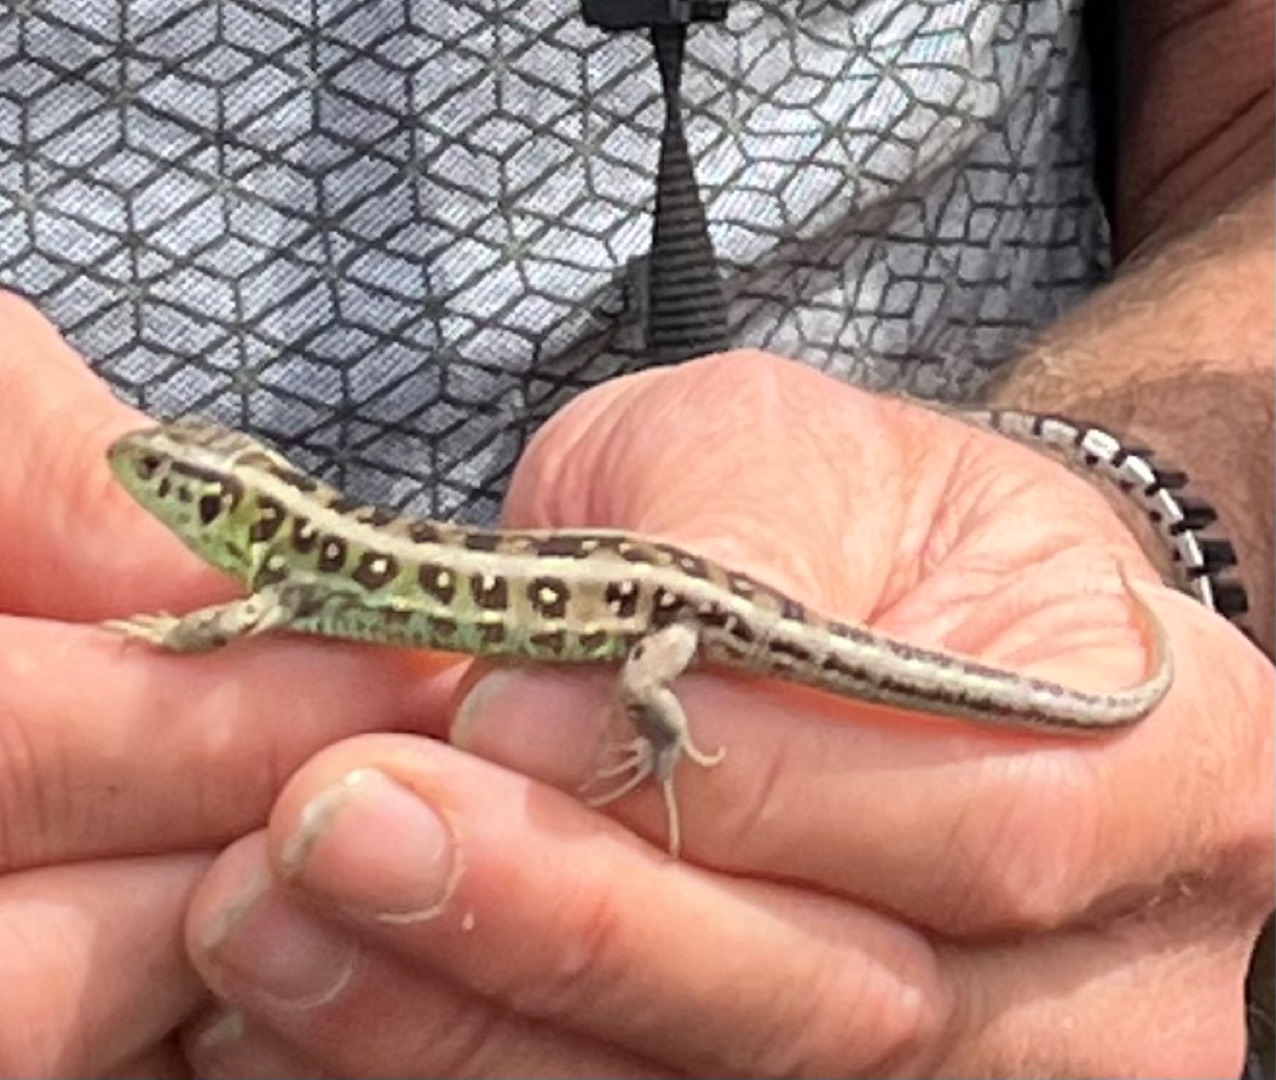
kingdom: Animalia
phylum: Chordata
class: Squamata
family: Lacertidae
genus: Lacerta
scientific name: Lacerta agilis
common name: Markfirben
